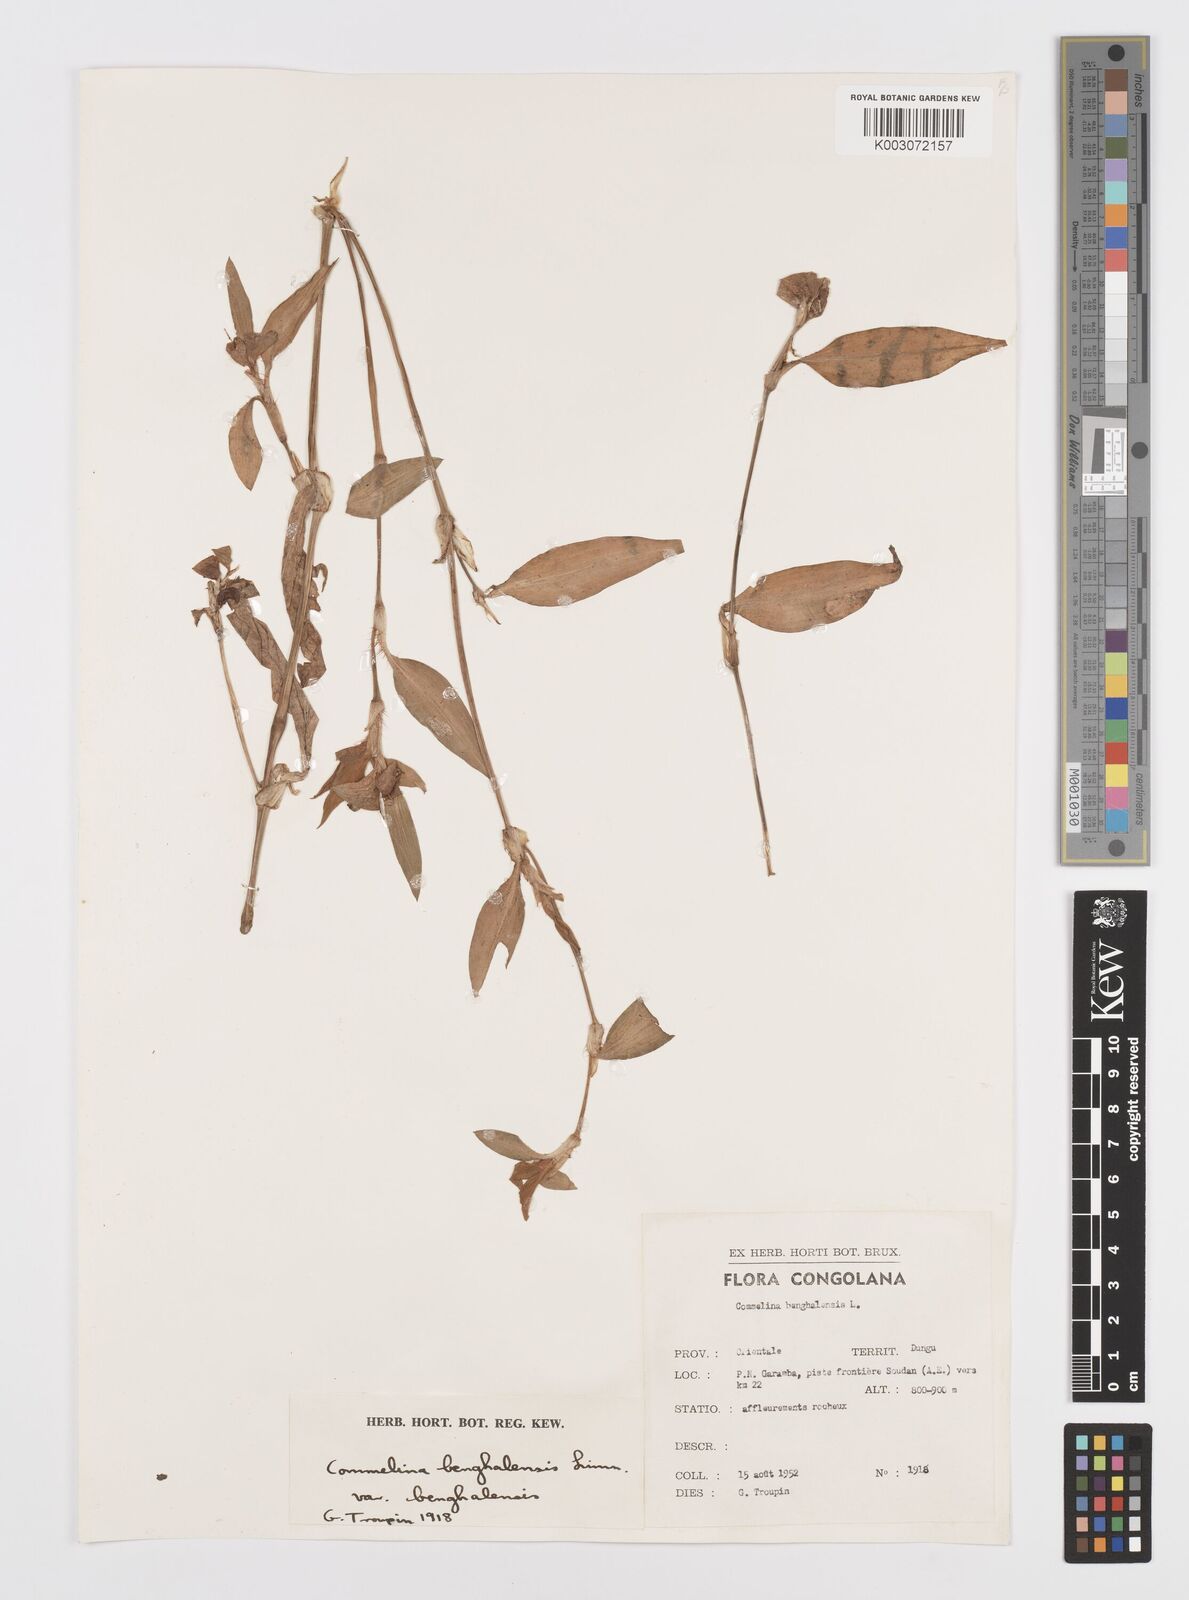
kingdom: Plantae
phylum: Tracheophyta
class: Liliopsida
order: Commelinales
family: Commelinaceae
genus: Commelina
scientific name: Commelina benghalensis
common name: Jio
